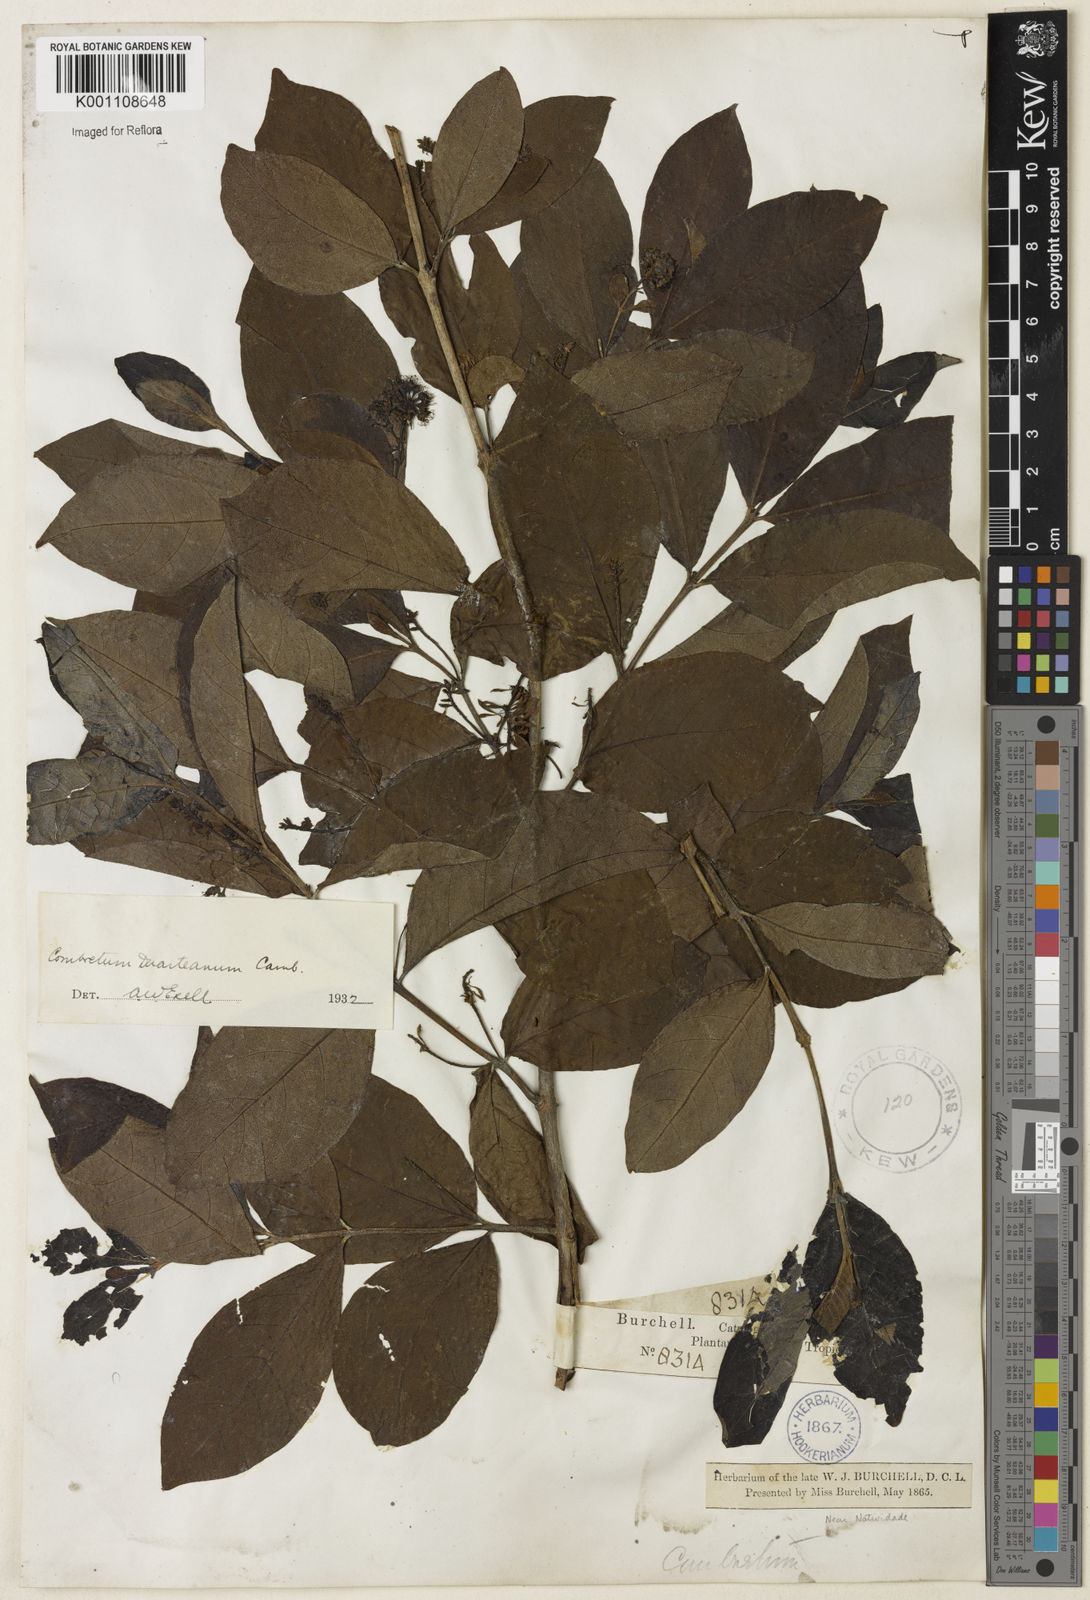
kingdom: Plantae
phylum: Tracheophyta
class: Magnoliopsida
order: Myrtales
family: Combretaceae
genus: Combretum
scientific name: Combretum duarteanum
